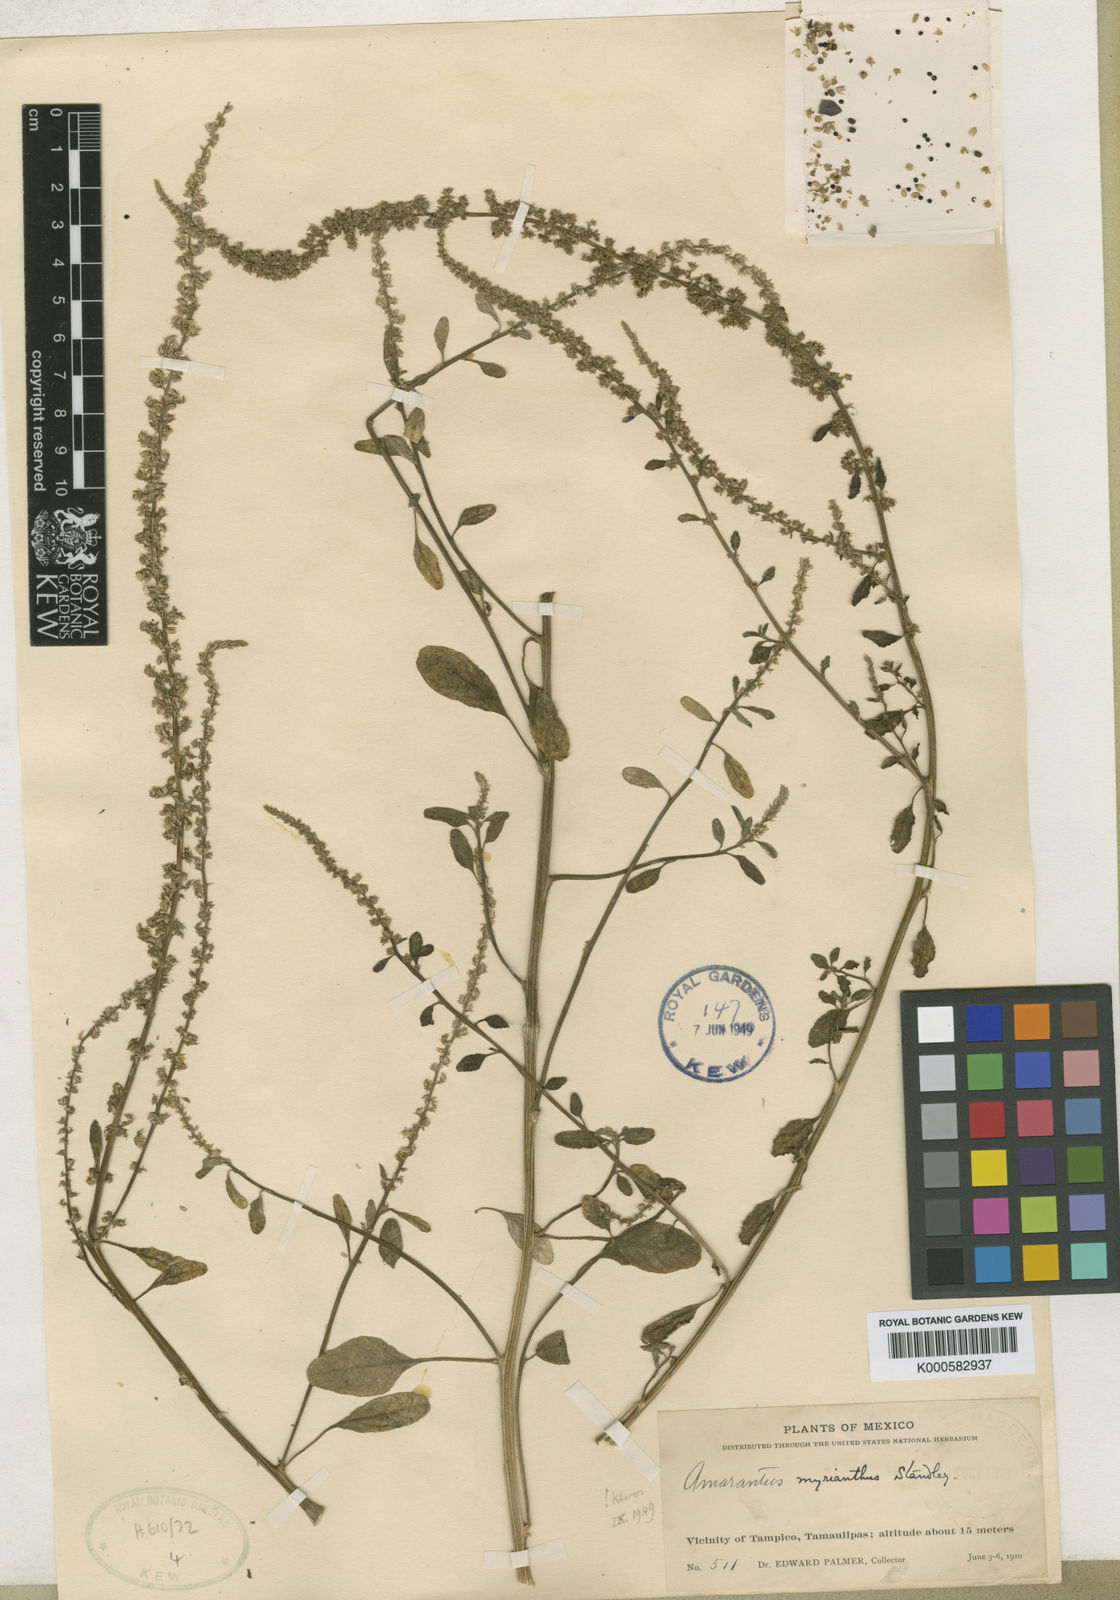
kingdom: Plantae
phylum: Tracheophyta
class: Magnoliopsida
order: Caryophyllales
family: Amaranthaceae
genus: Amaranthus
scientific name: Amaranthus greggii
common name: Josiah amaranth
